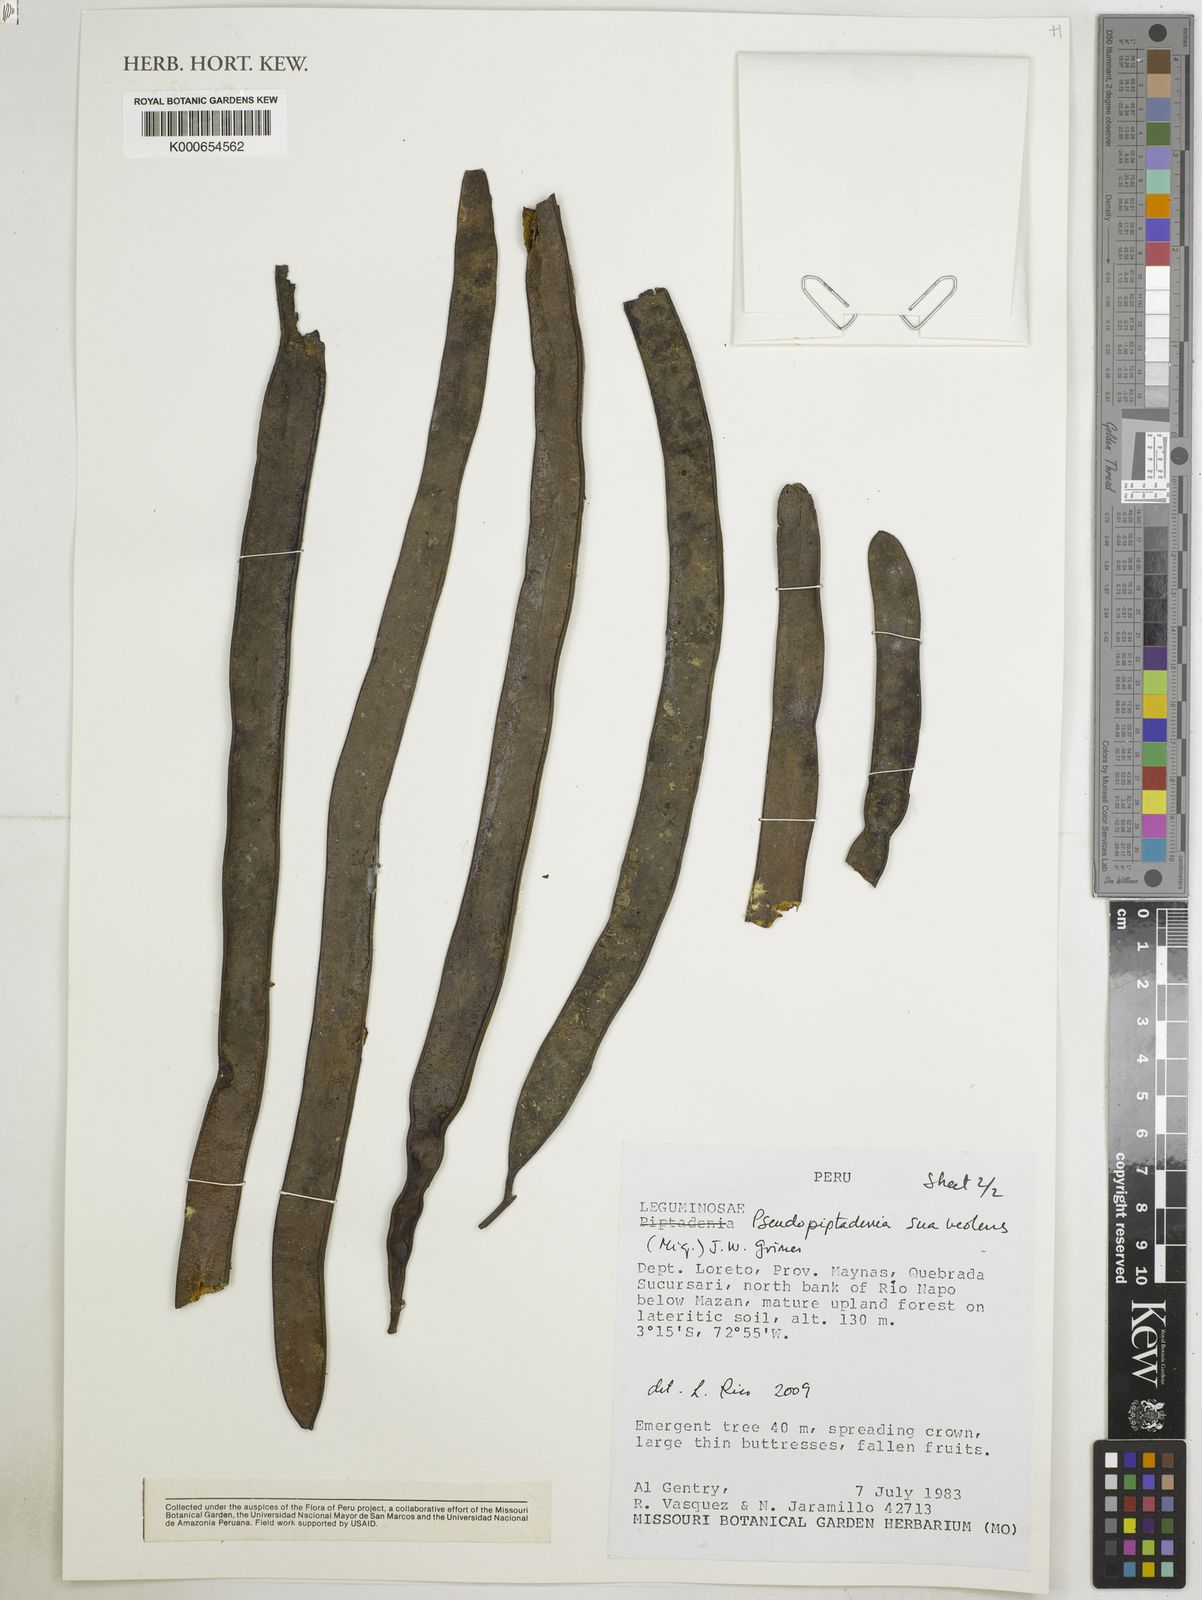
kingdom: Plantae
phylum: Tracheophyta
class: Magnoliopsida
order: Fabales
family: Fabaceae
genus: Pseudopiptadenia
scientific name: Pseudopiptadenia suaveolens
